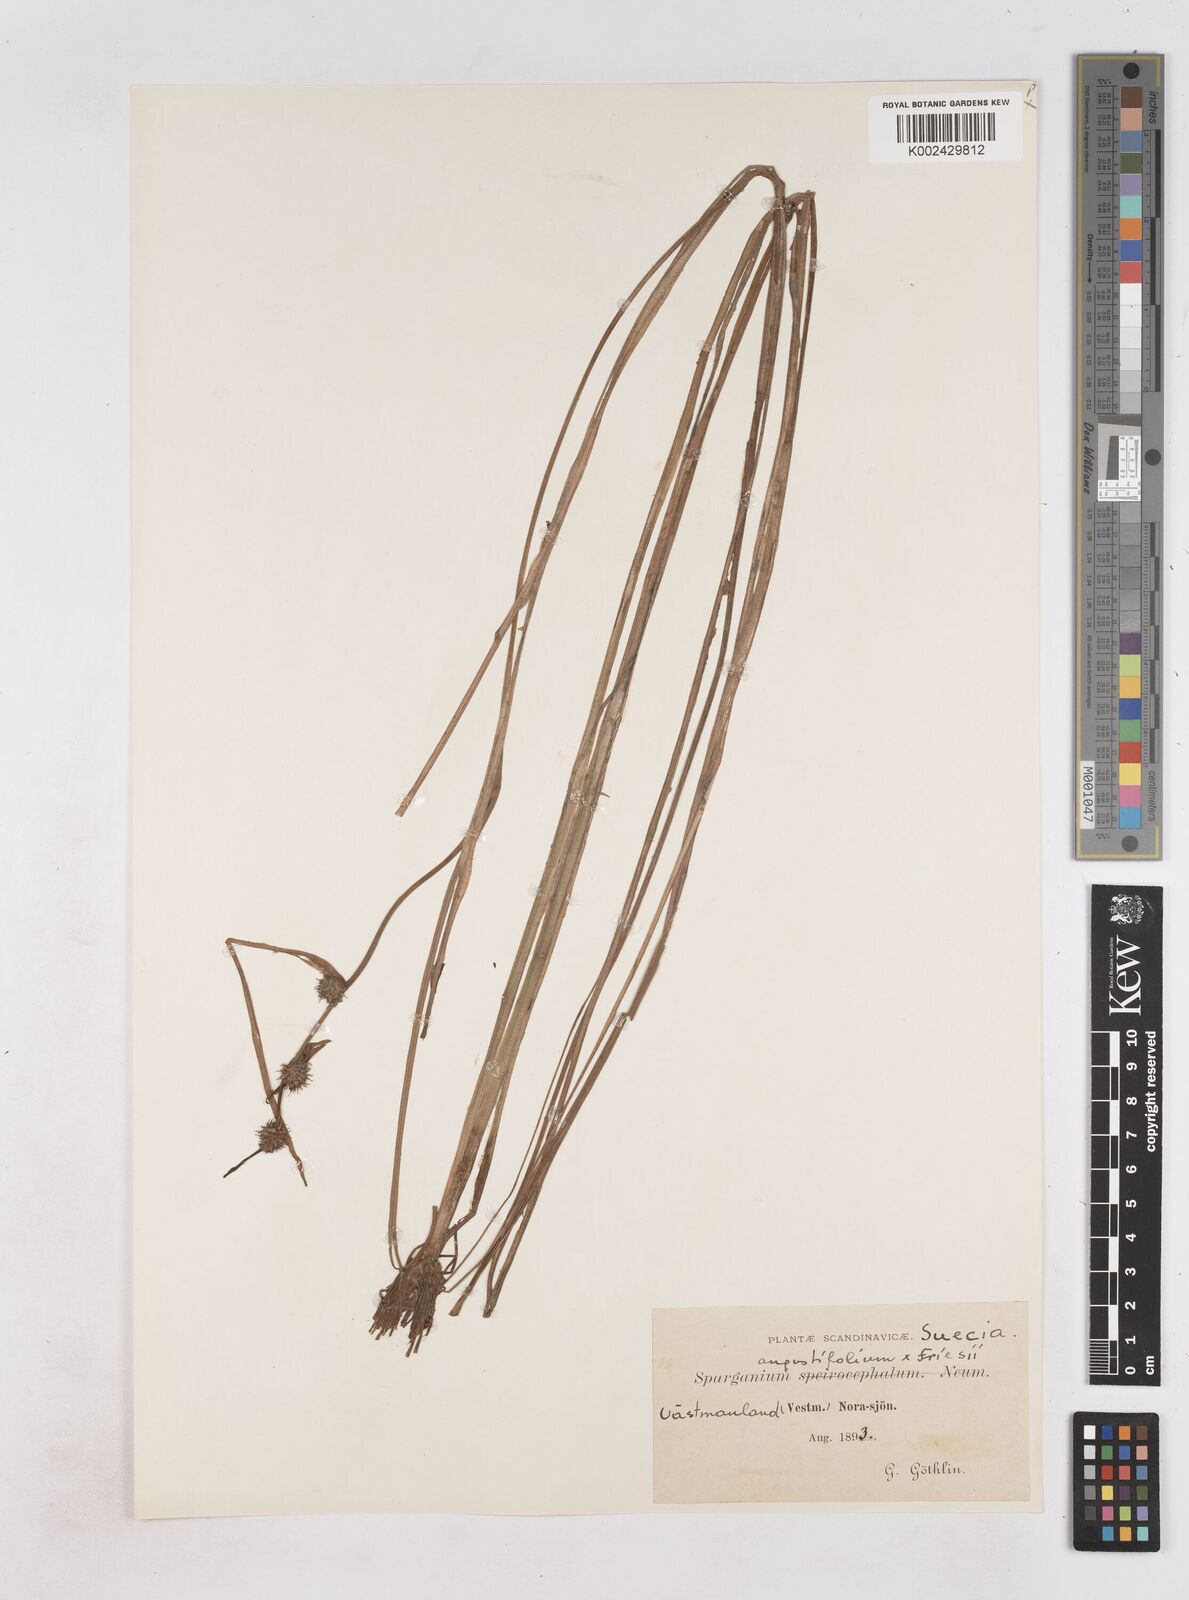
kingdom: Plantae
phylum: Tracheophyta
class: Liliopsida
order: Poales
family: Typhaceae
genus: Sparganium
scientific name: Sparganium
